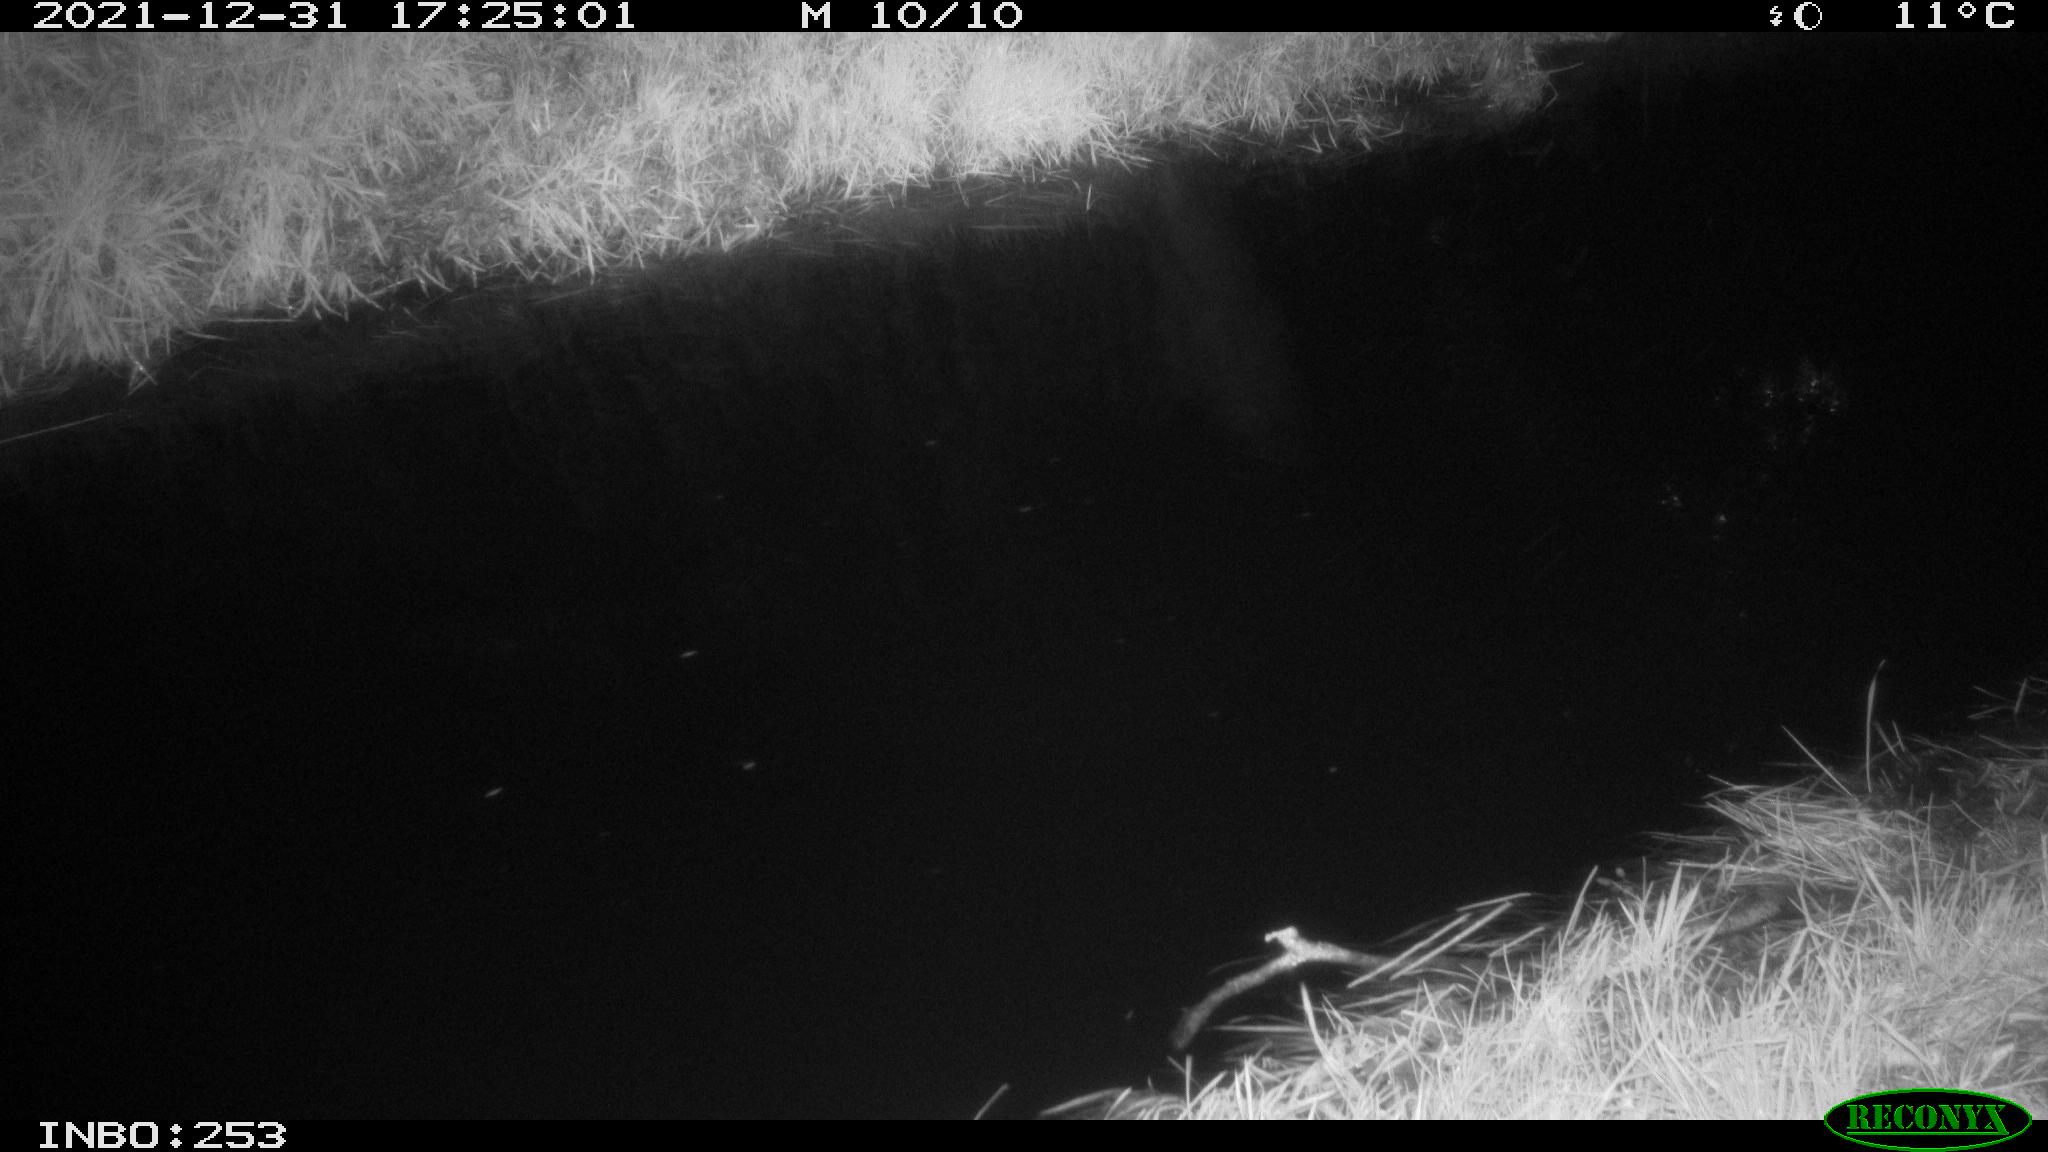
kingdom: Animalia
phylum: Chordata
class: Mammalia
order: Lagomorpha
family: Leporidae
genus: Lepus
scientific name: Lepus europaeus
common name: European hare
